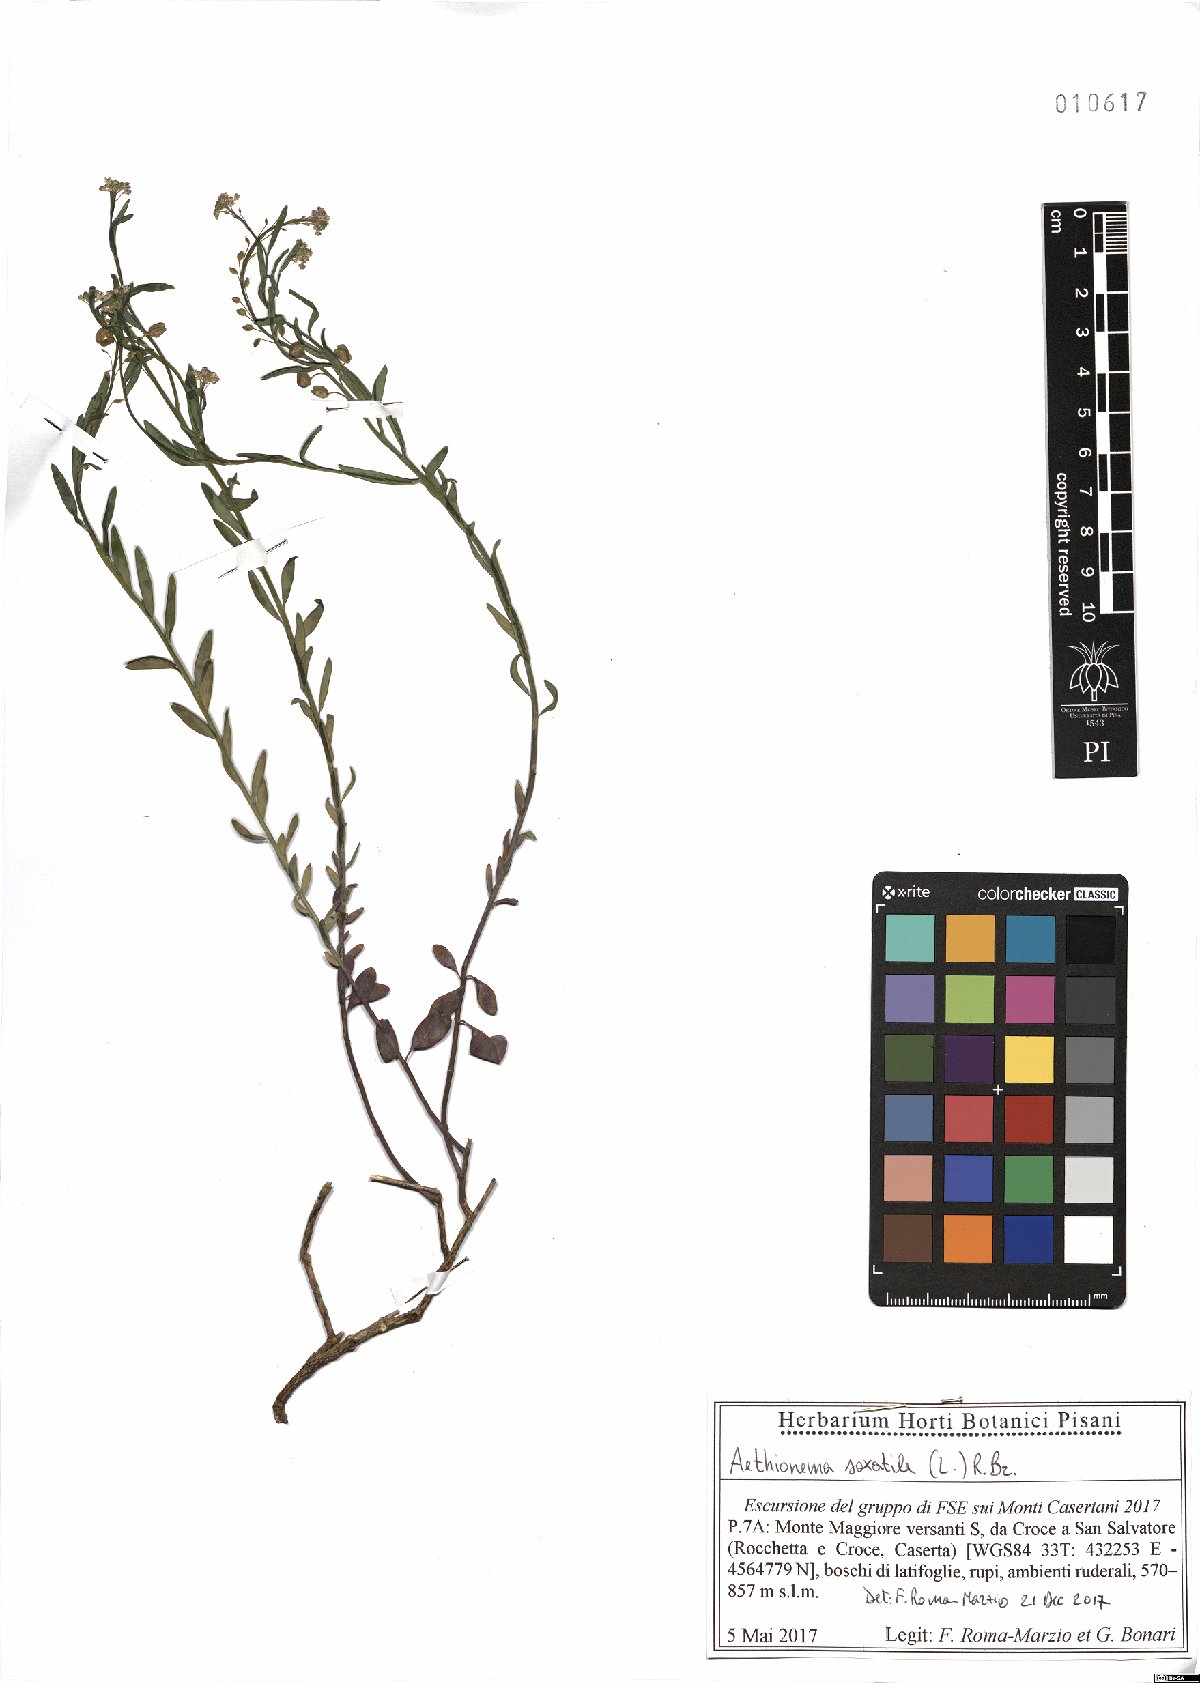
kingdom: Plantae
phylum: Tracheophyta
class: Magnoliopsida
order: Brassicales
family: Brassicaceae
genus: Aethionema
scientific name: Aethionema saxatile
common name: Burnt candytuft
